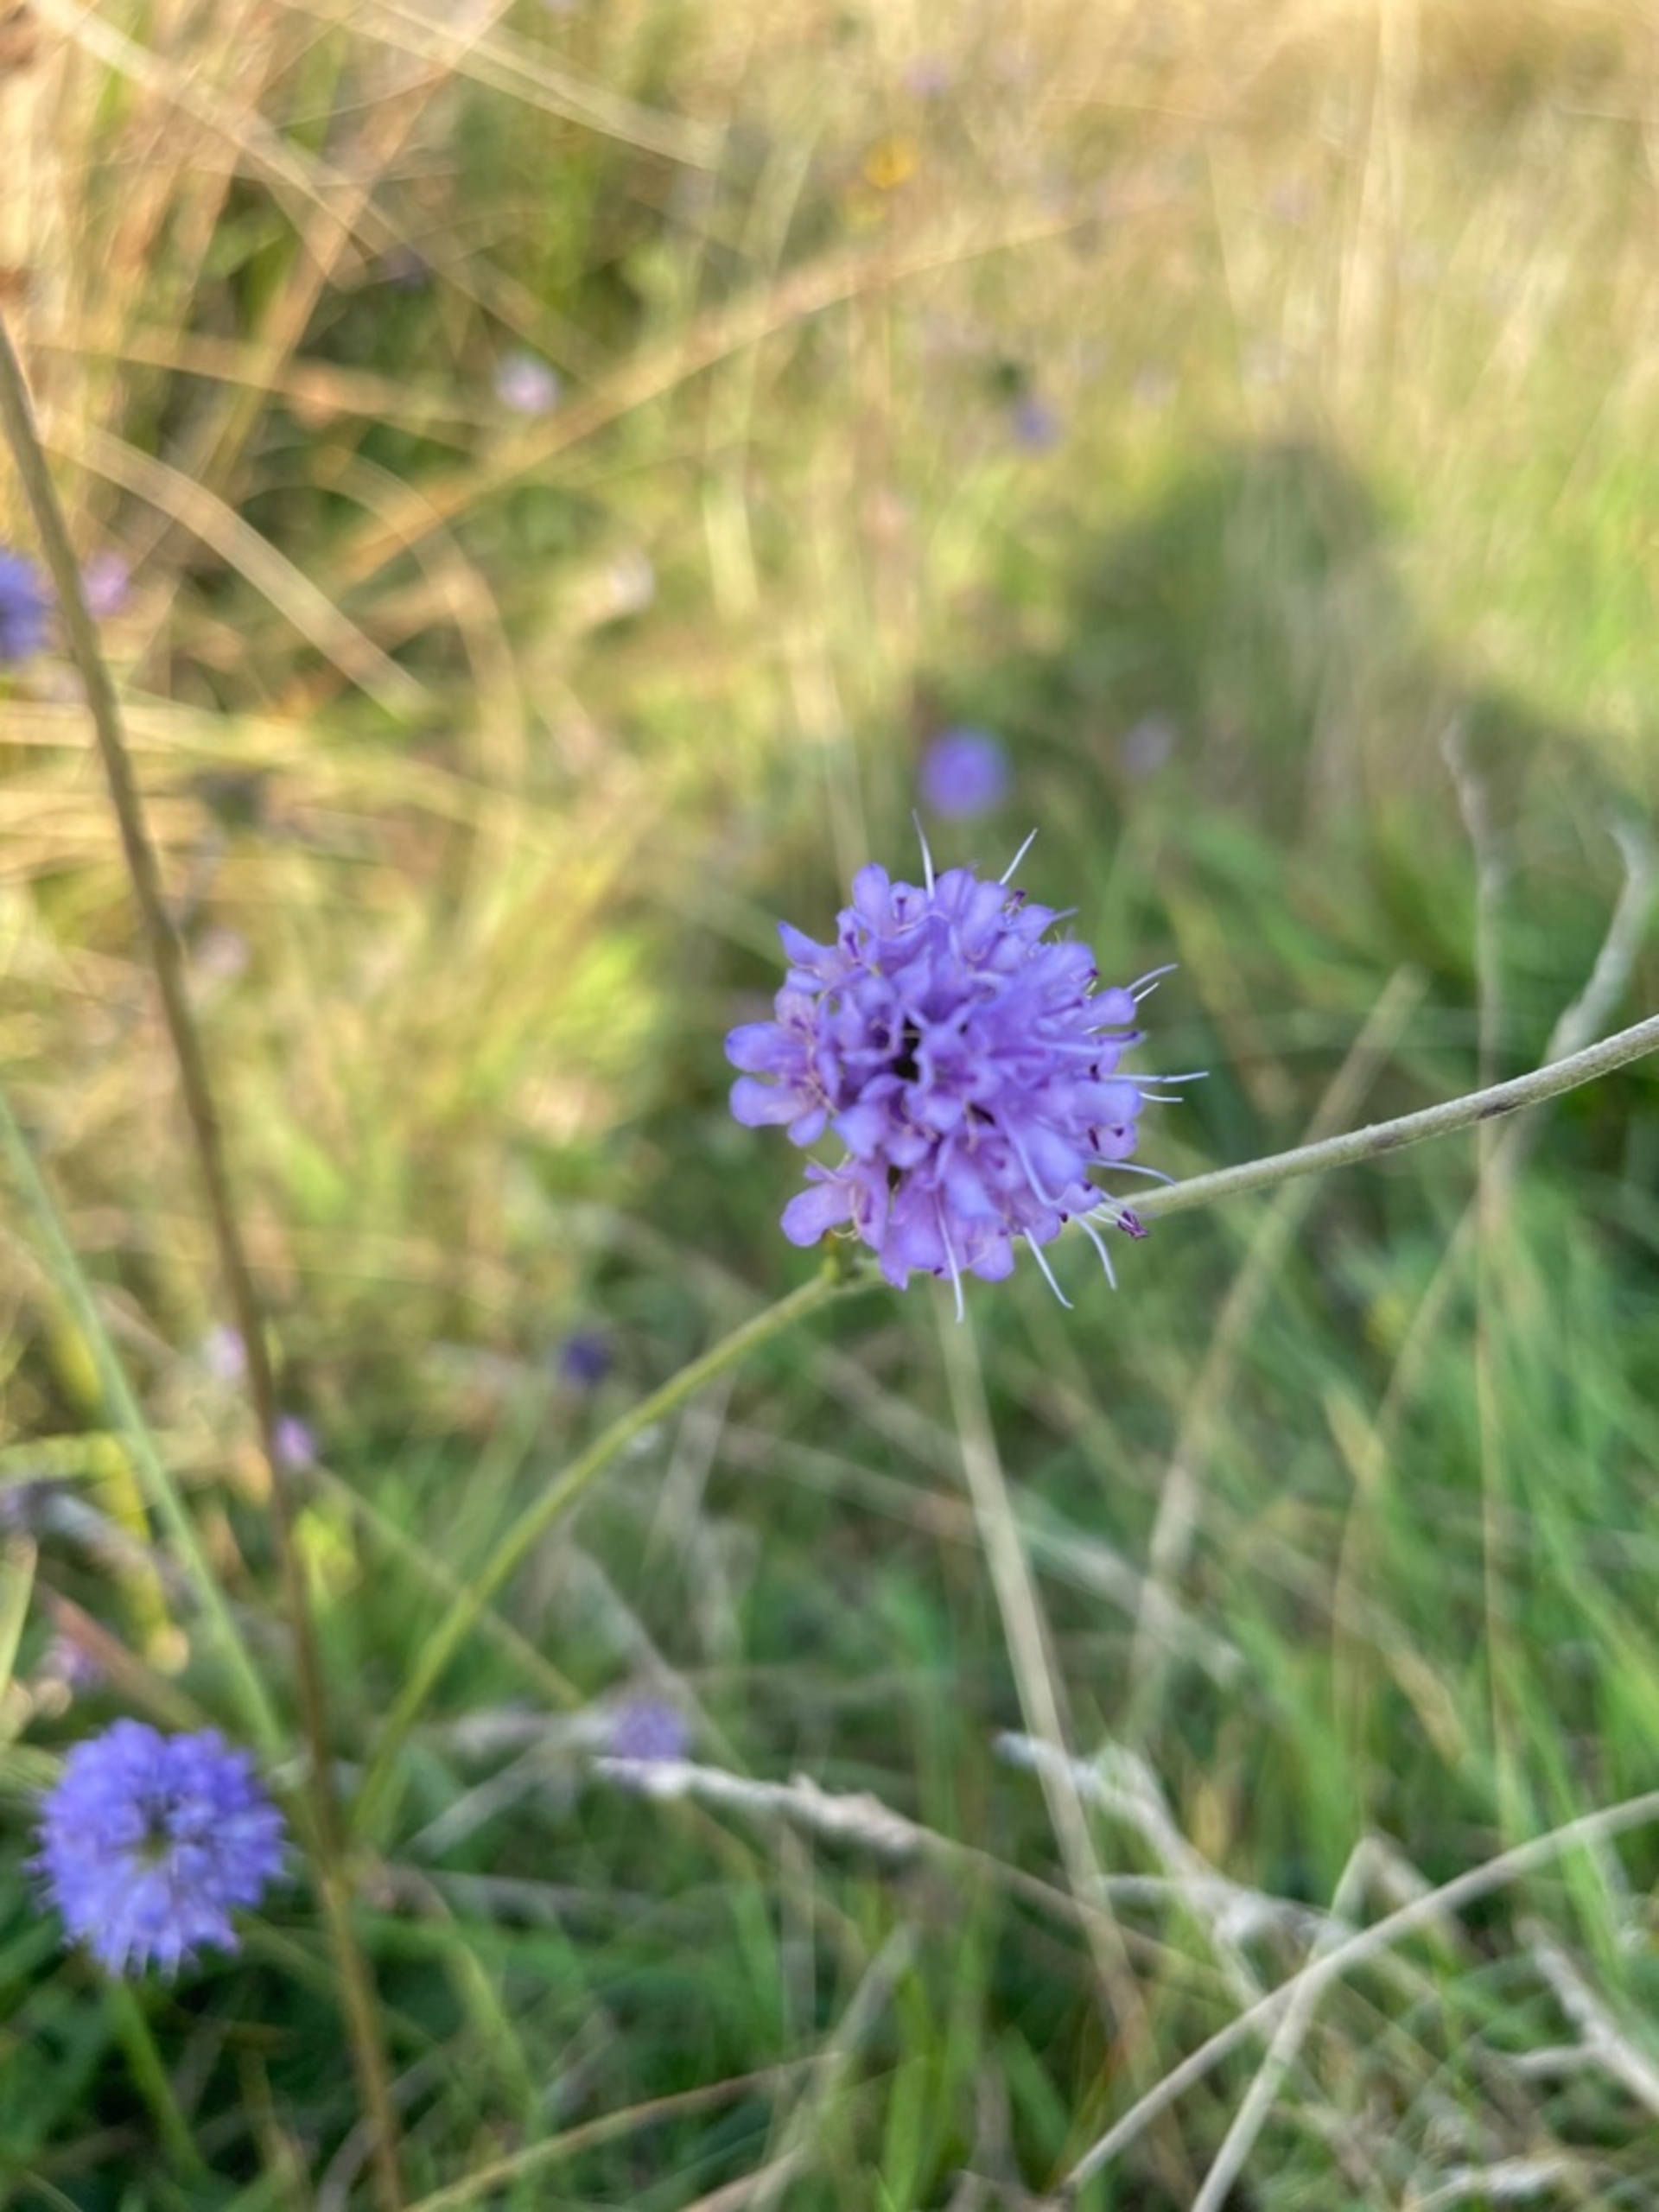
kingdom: Plantae
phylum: Tracheophyta
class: Magnoliopsida
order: Dipsacales
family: Caprifoliaceae
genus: Succisa
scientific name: Succisa pratensis
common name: Djævelsbid
